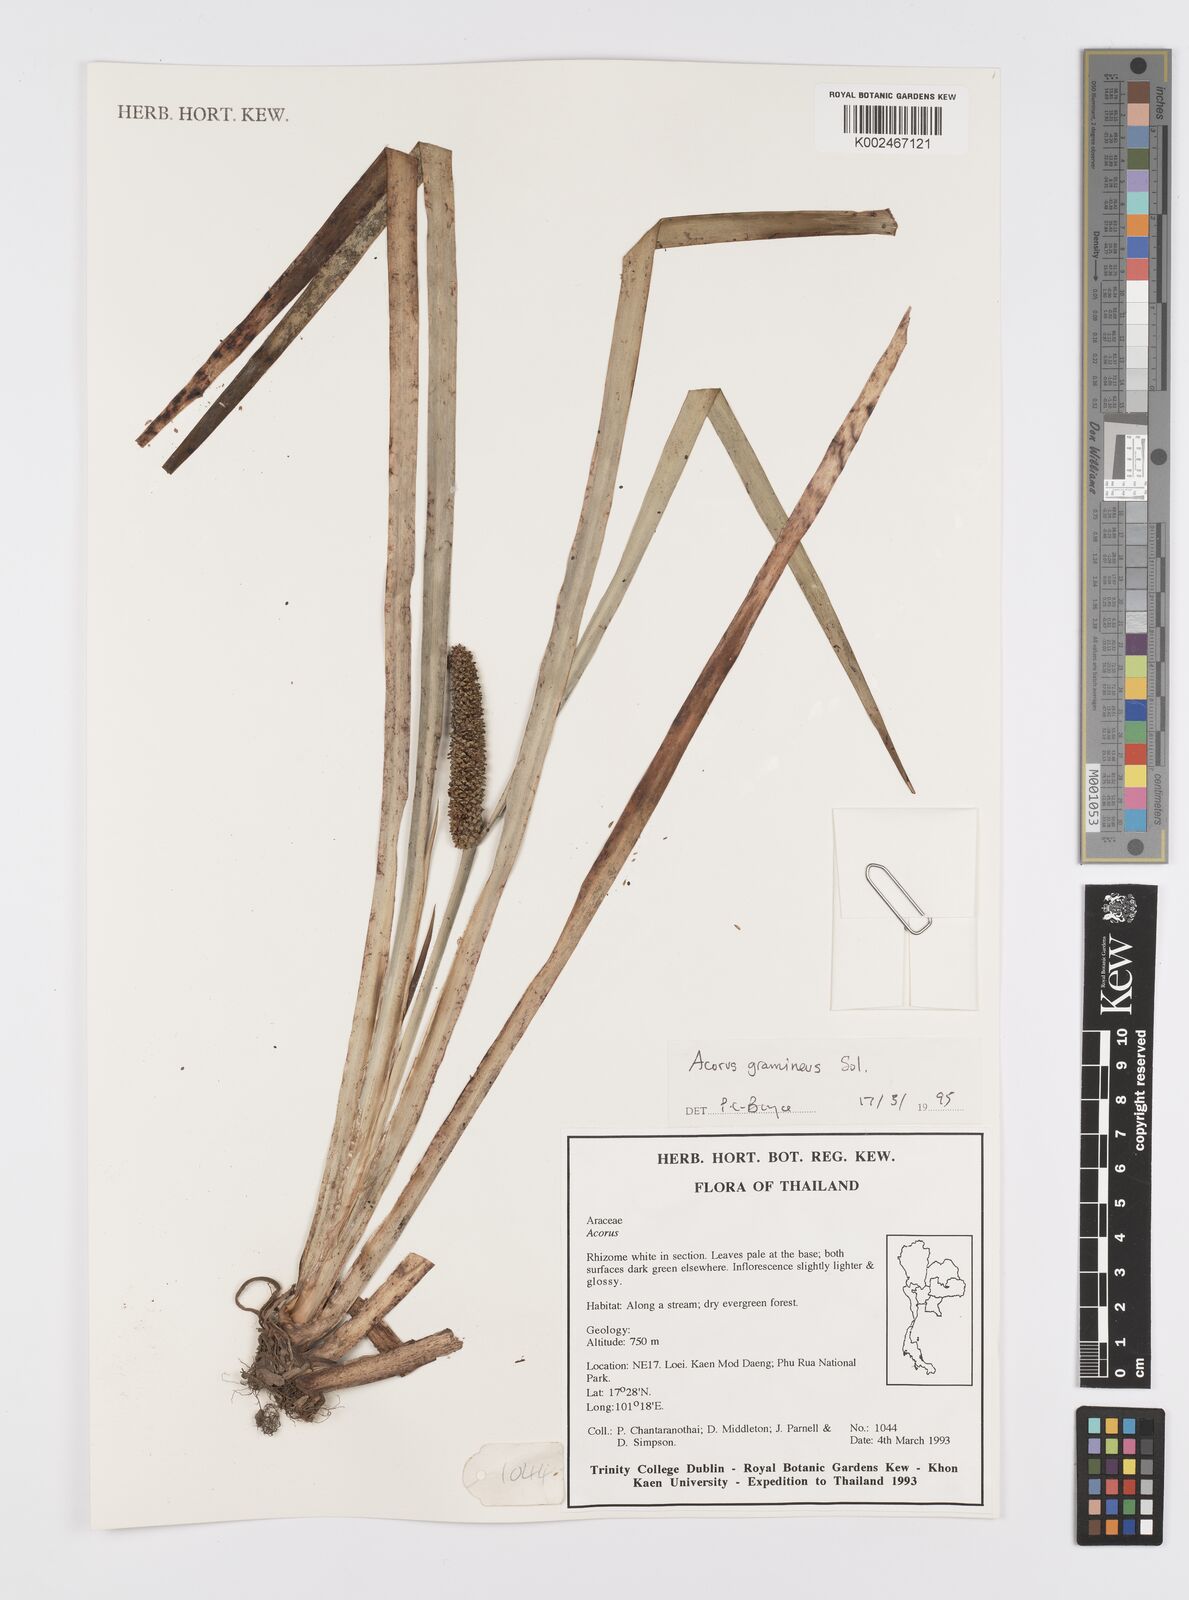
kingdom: Plantae
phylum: Tracheophyta
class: Liliopsida
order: Acorales
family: Acoraceae
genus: Acorus
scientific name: Acorus gramineus
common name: Slender sweet-flag
